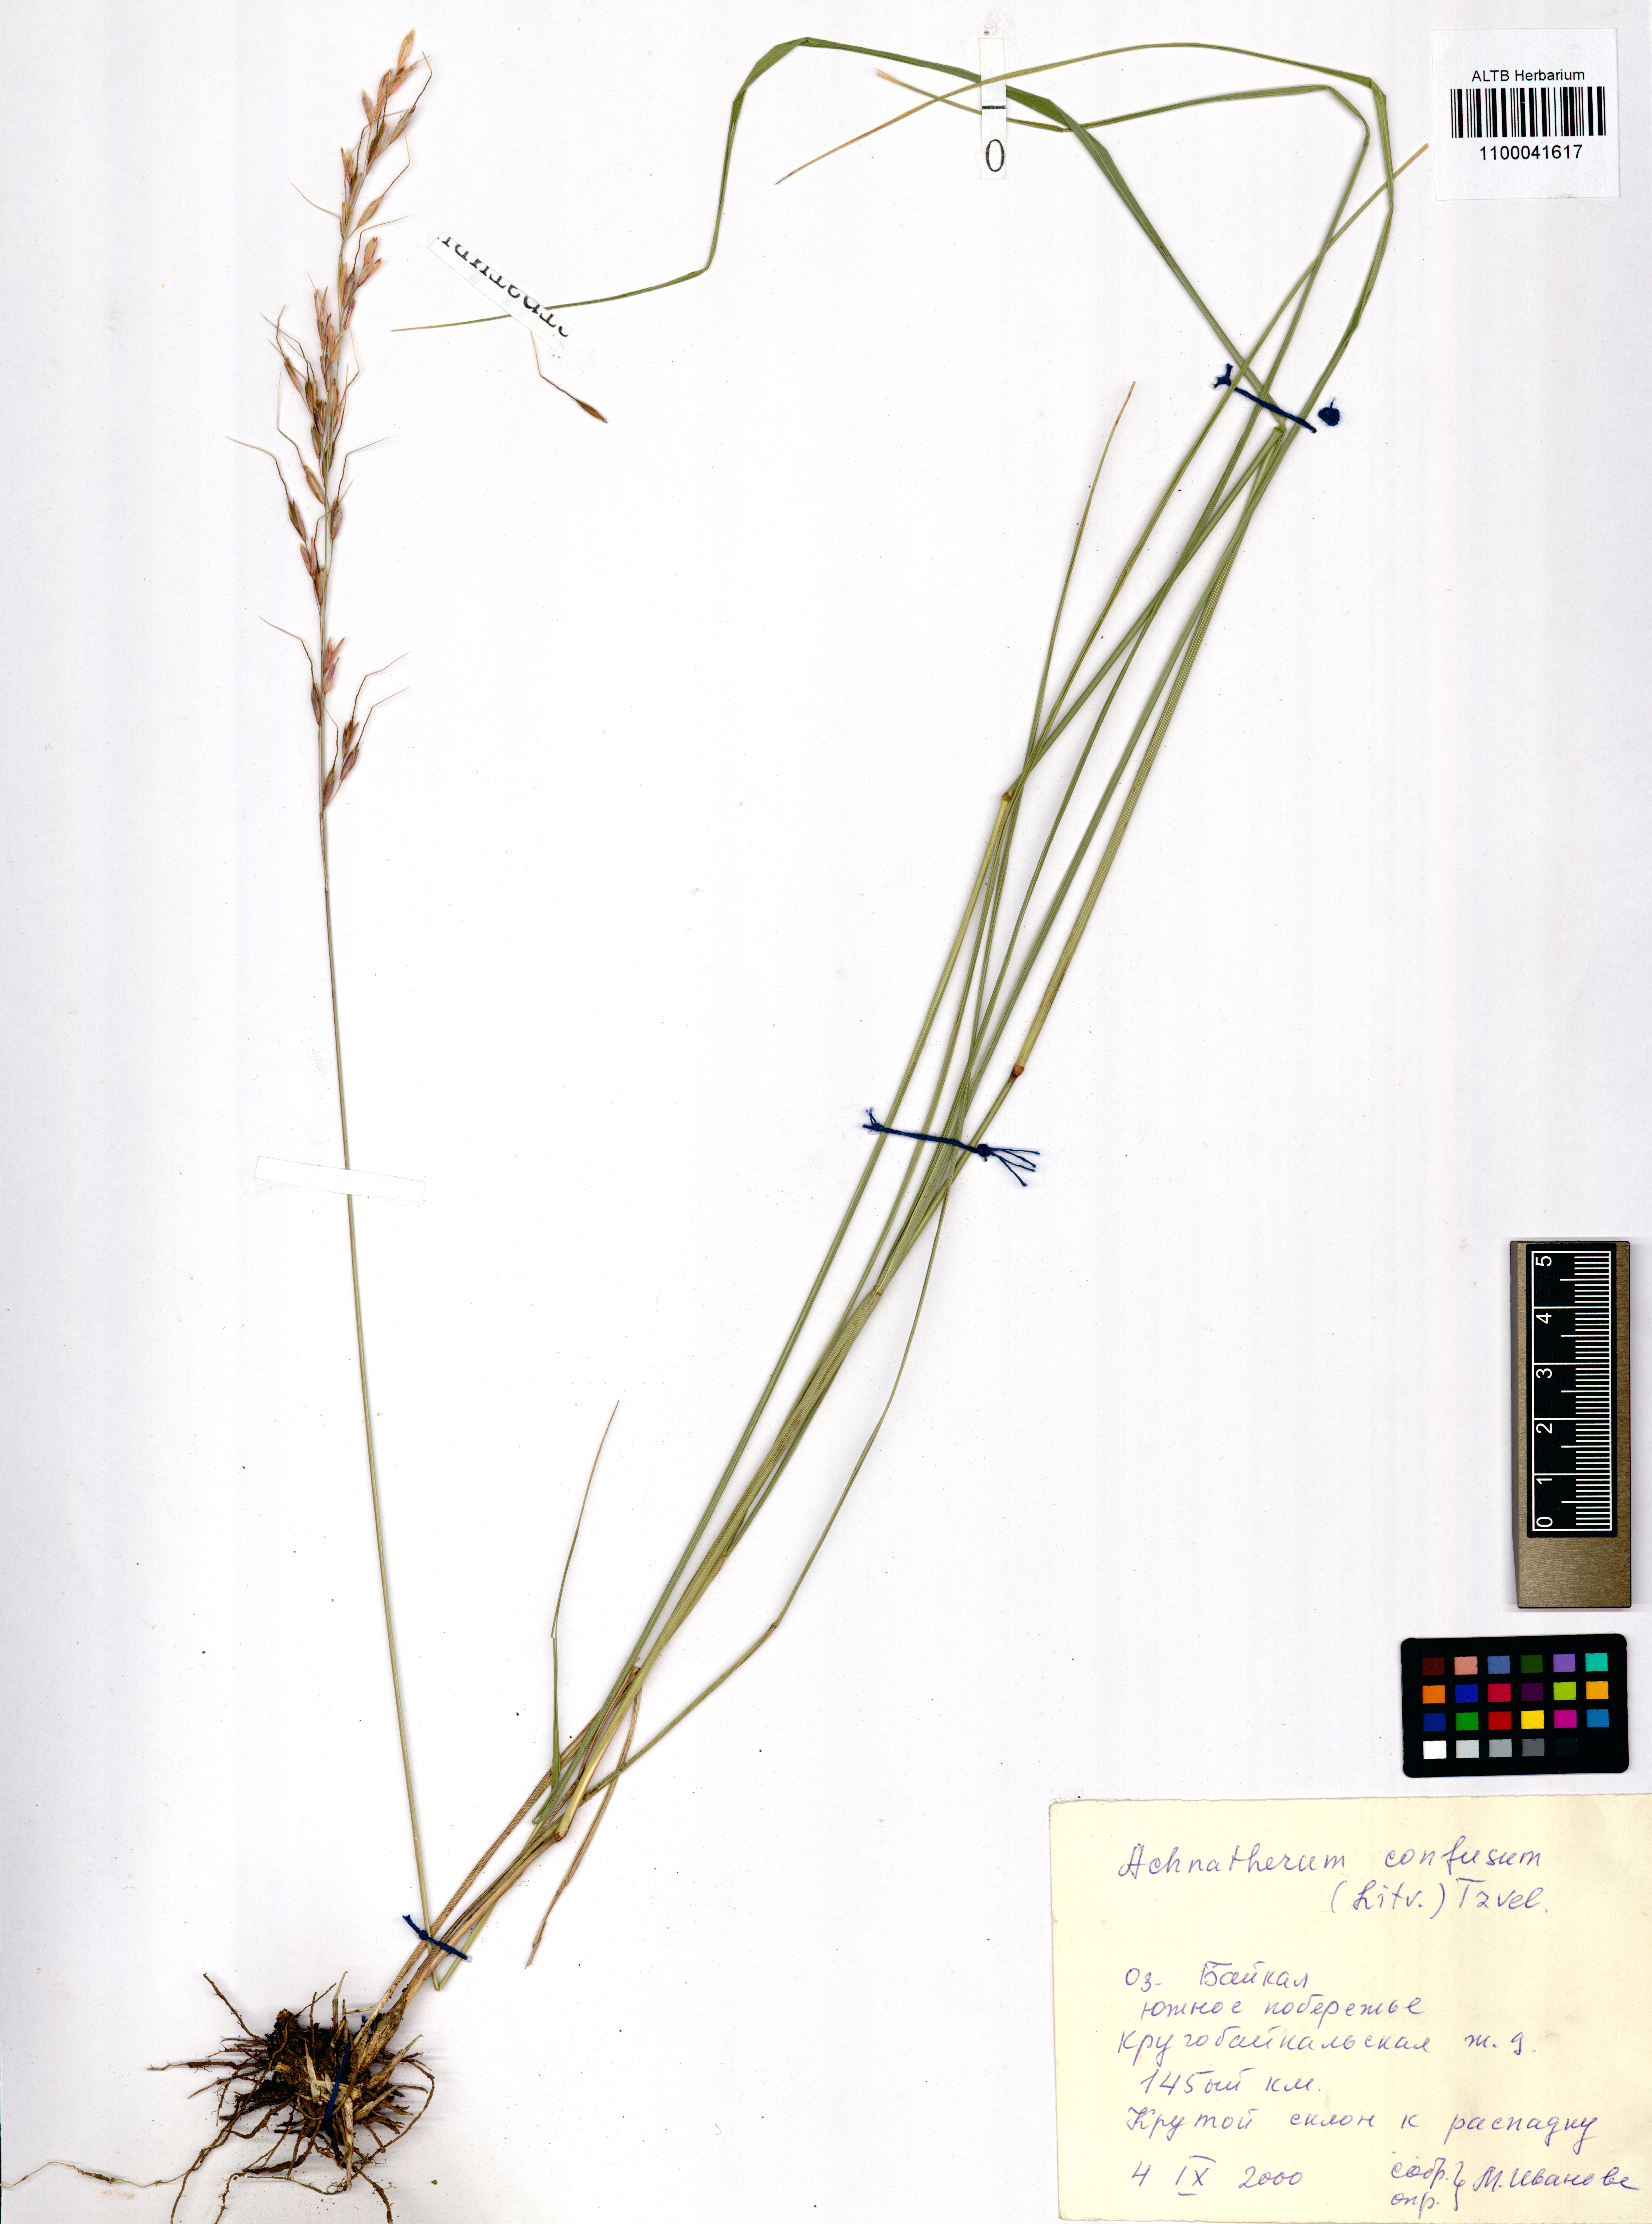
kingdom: Plantae
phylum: Tracheophyta
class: Liliopsida
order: Poales
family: Poaceae
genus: Achnatherum
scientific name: Achnatherum confusum
